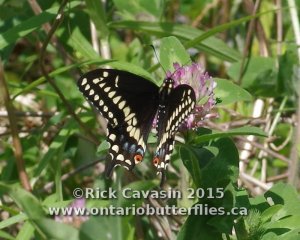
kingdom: Animalia
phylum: Arthropoda
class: Insecta
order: Lepidoptera
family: Papilionidae
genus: Papilio
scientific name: Papilio polyxenes
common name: Black Swallowtail
